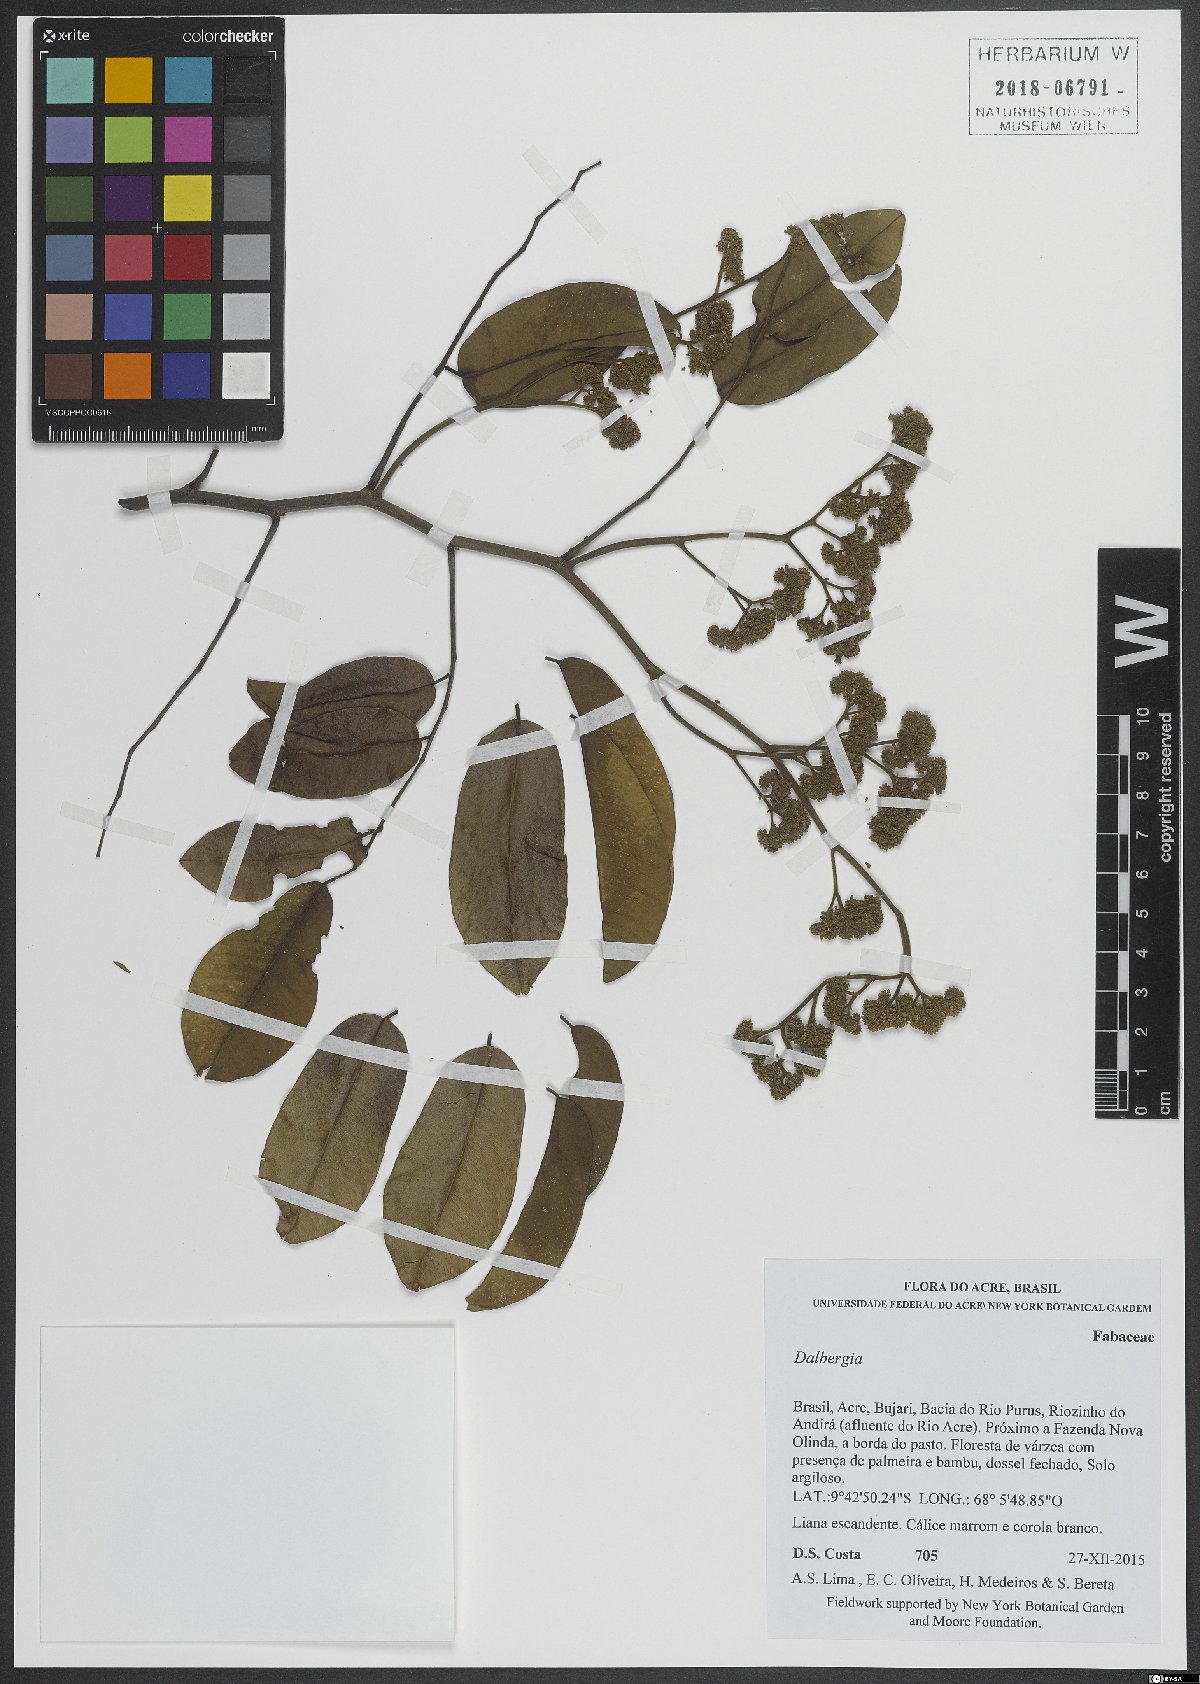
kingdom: Plantae
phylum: Tracheophyta
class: Magnoliopsida
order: Fabales
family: Fabaceae
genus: Dalbergia
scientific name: Dalbergia
